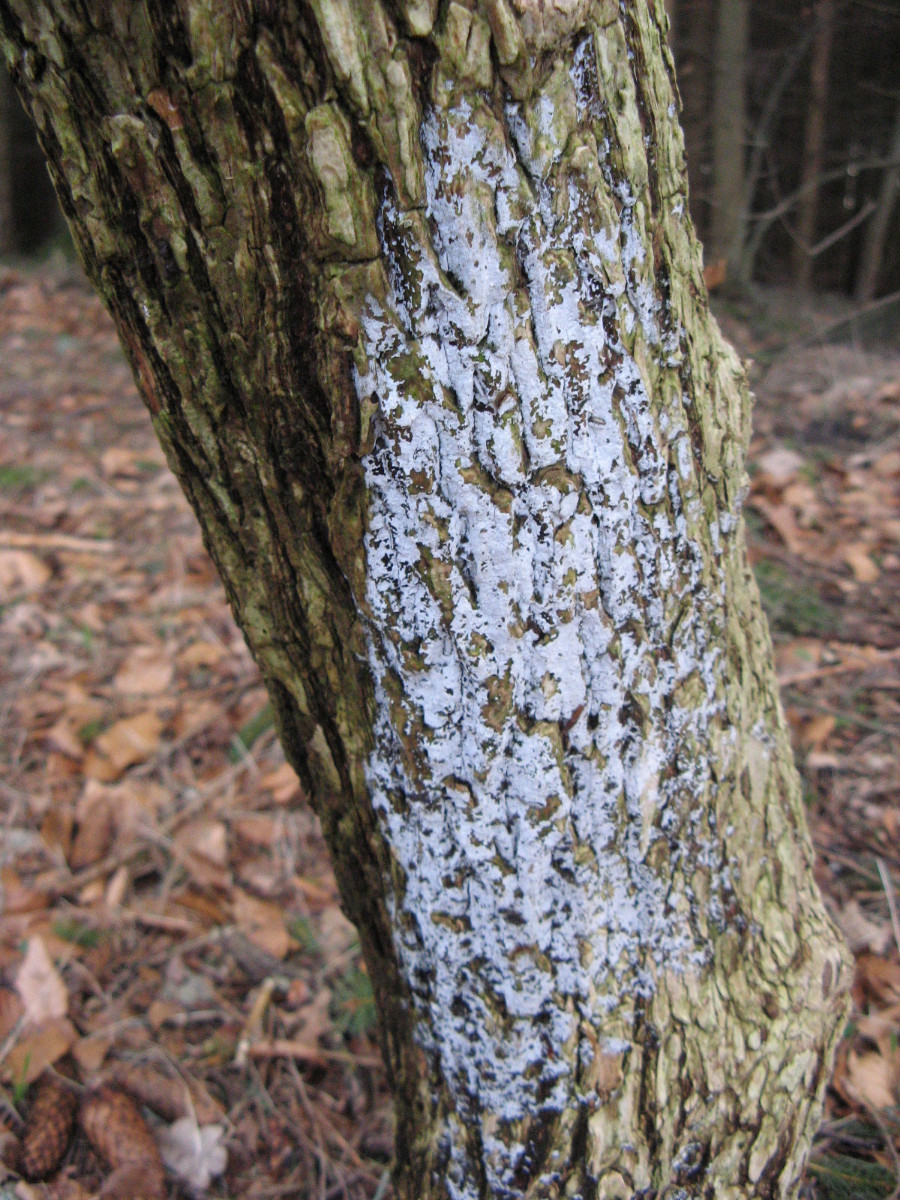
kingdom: Fungi
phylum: Basidiomycota
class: Agaricomycetes
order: Corticiales
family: Corticiaceae
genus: Lyomyces
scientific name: Lyomyces sambuci
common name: almindelig hyldehinde
